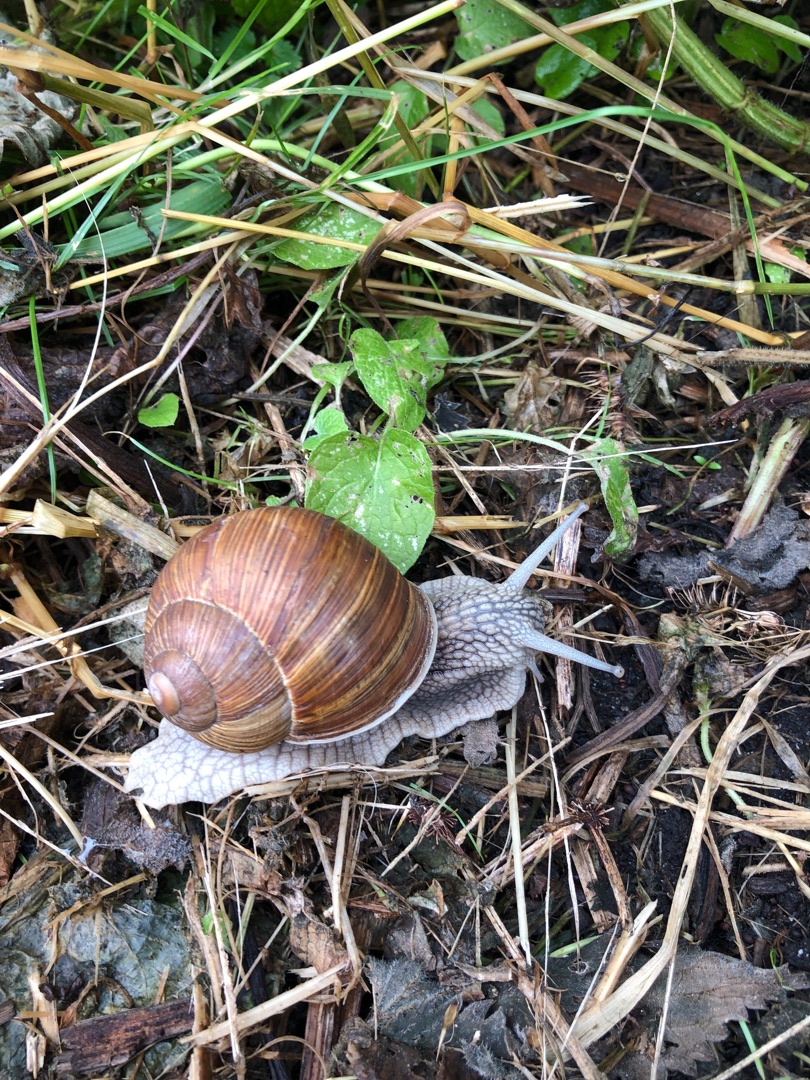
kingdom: Animalia
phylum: Mollusca
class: Gastropoda
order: Stylommatophora
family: Helicidae
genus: Helix
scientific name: Helix pomatia
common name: Vinbjergsnegl
